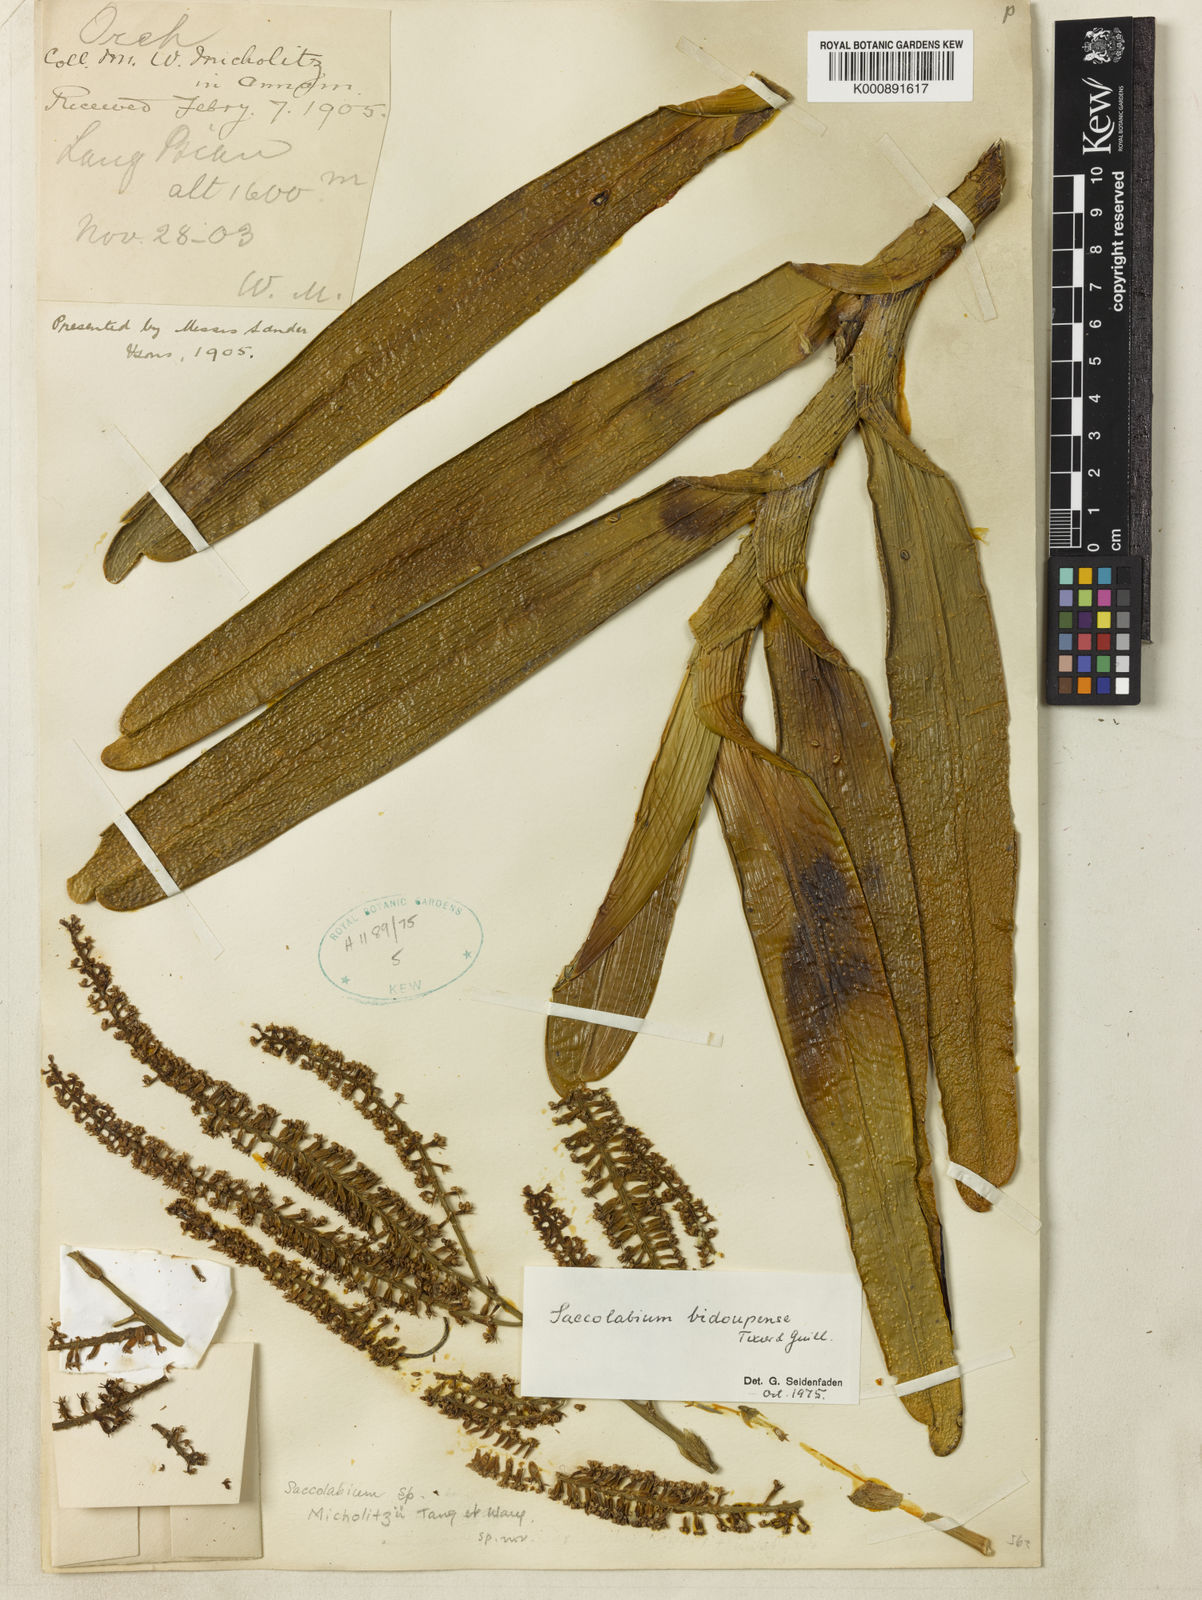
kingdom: Plantae
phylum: Tracheophyta
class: Liliopsida
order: Asparagales
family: Orchidaceae
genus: Deceptor
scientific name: Deceptor bidoupensis
